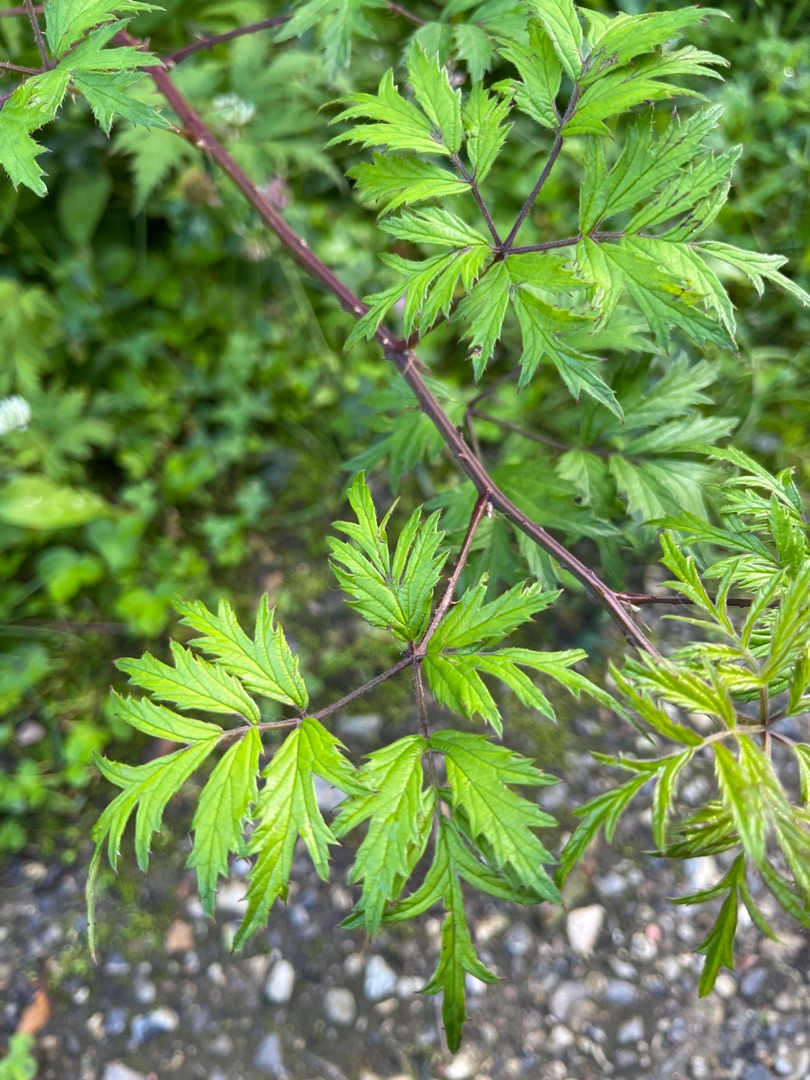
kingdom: Plantae
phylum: Tracheophyta
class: Magnoliopsida
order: Rosales
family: Rosaceae
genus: Rubus
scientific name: Rubus laciniatus
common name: Fliget brombær
